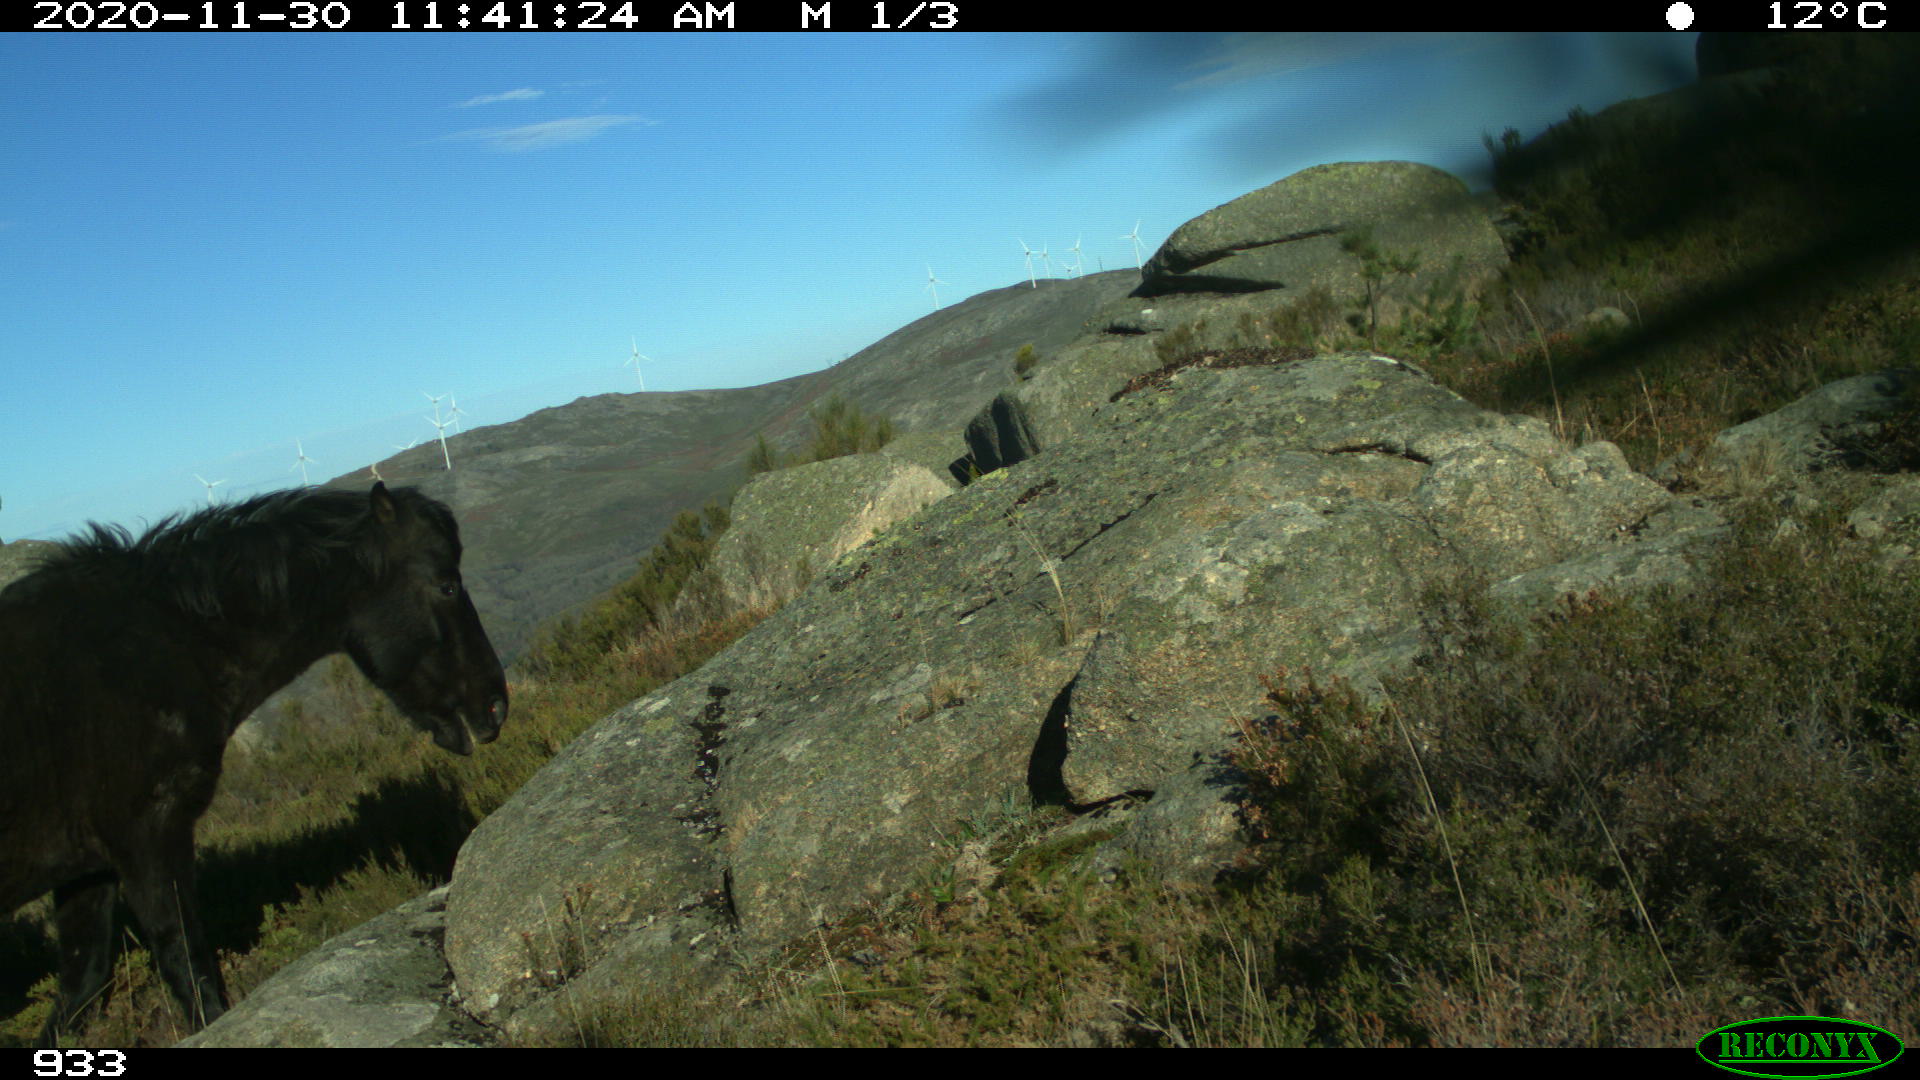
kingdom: Animalia
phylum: Chordata
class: Mammalia
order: Perissodactyla
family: Equidae
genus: Equus
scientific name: Equus caballus
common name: Horse
